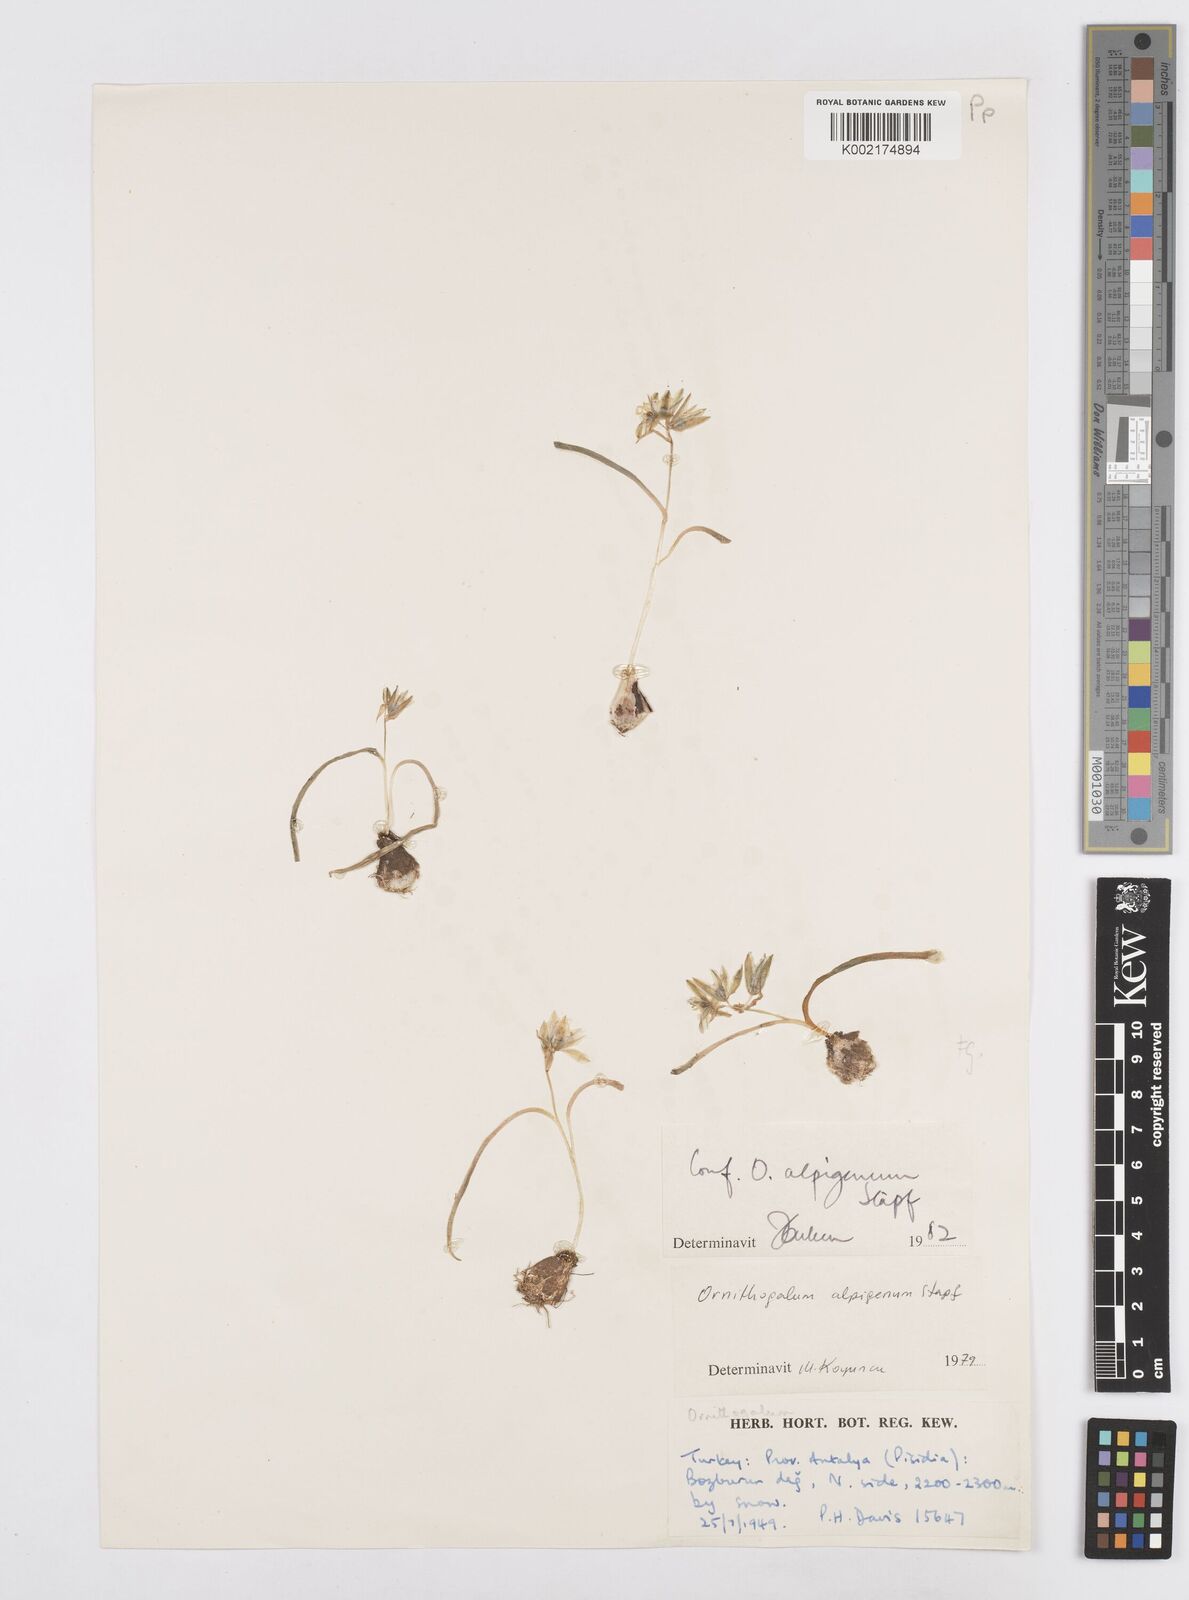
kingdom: Plantae
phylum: Tracheophyta
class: Liliopsida
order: Asparagales
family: Asparagaceae
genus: Ornithogalum
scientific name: Ornithogalum alpigenum
